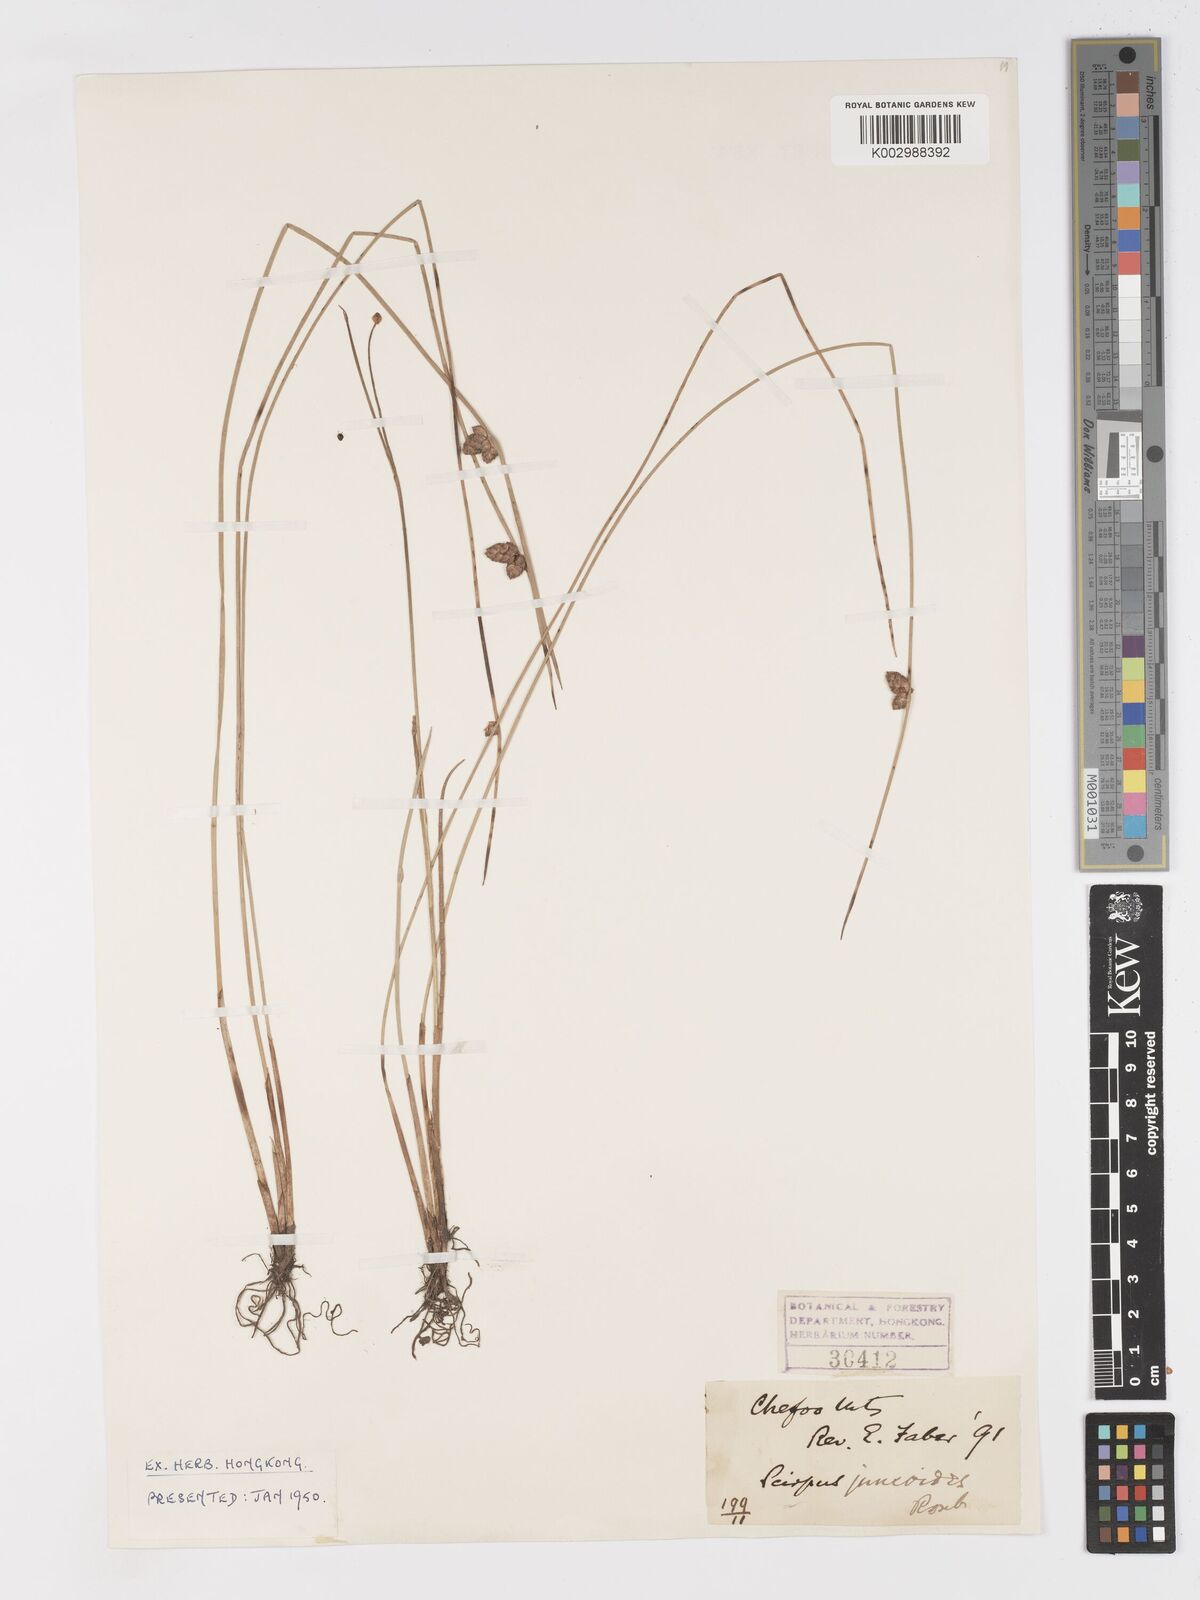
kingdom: Plantae
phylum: Tracheophyta
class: Liliopsida
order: Poales
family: Cyperaceae
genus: Schoenoplectiella
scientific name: Schoenoplectiella erecta
